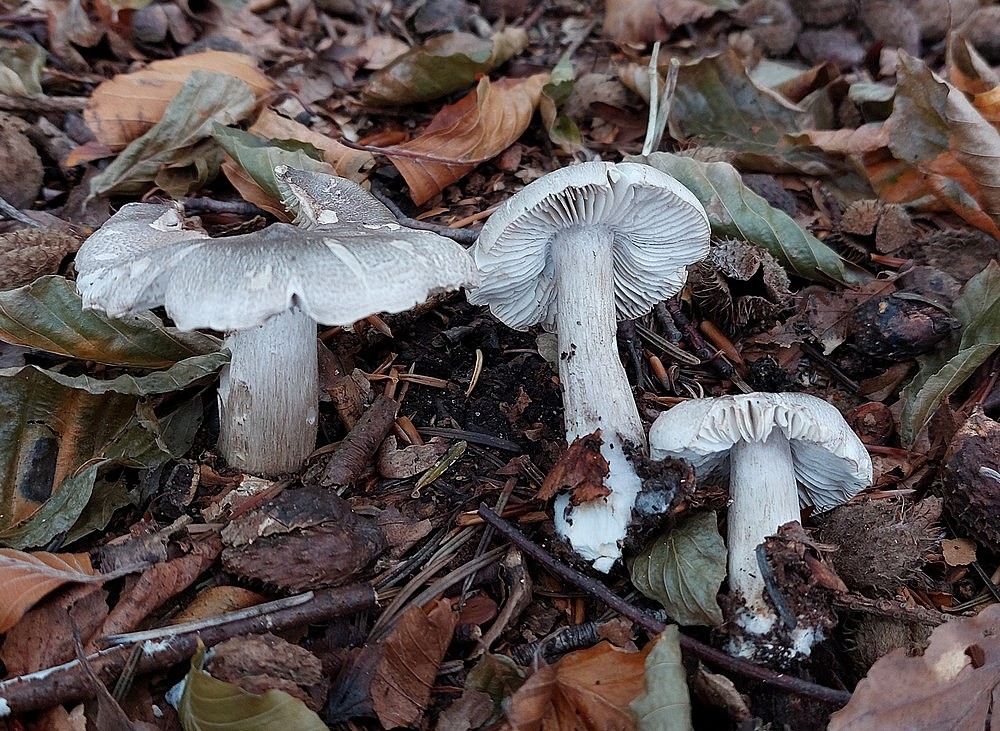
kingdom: Fungi
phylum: Basidiomycota
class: Agaricomycetes
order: Agaricales
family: Tricholomataceae
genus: Tricholoma
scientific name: Tricholoma sciodes
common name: stribet ridderhat
